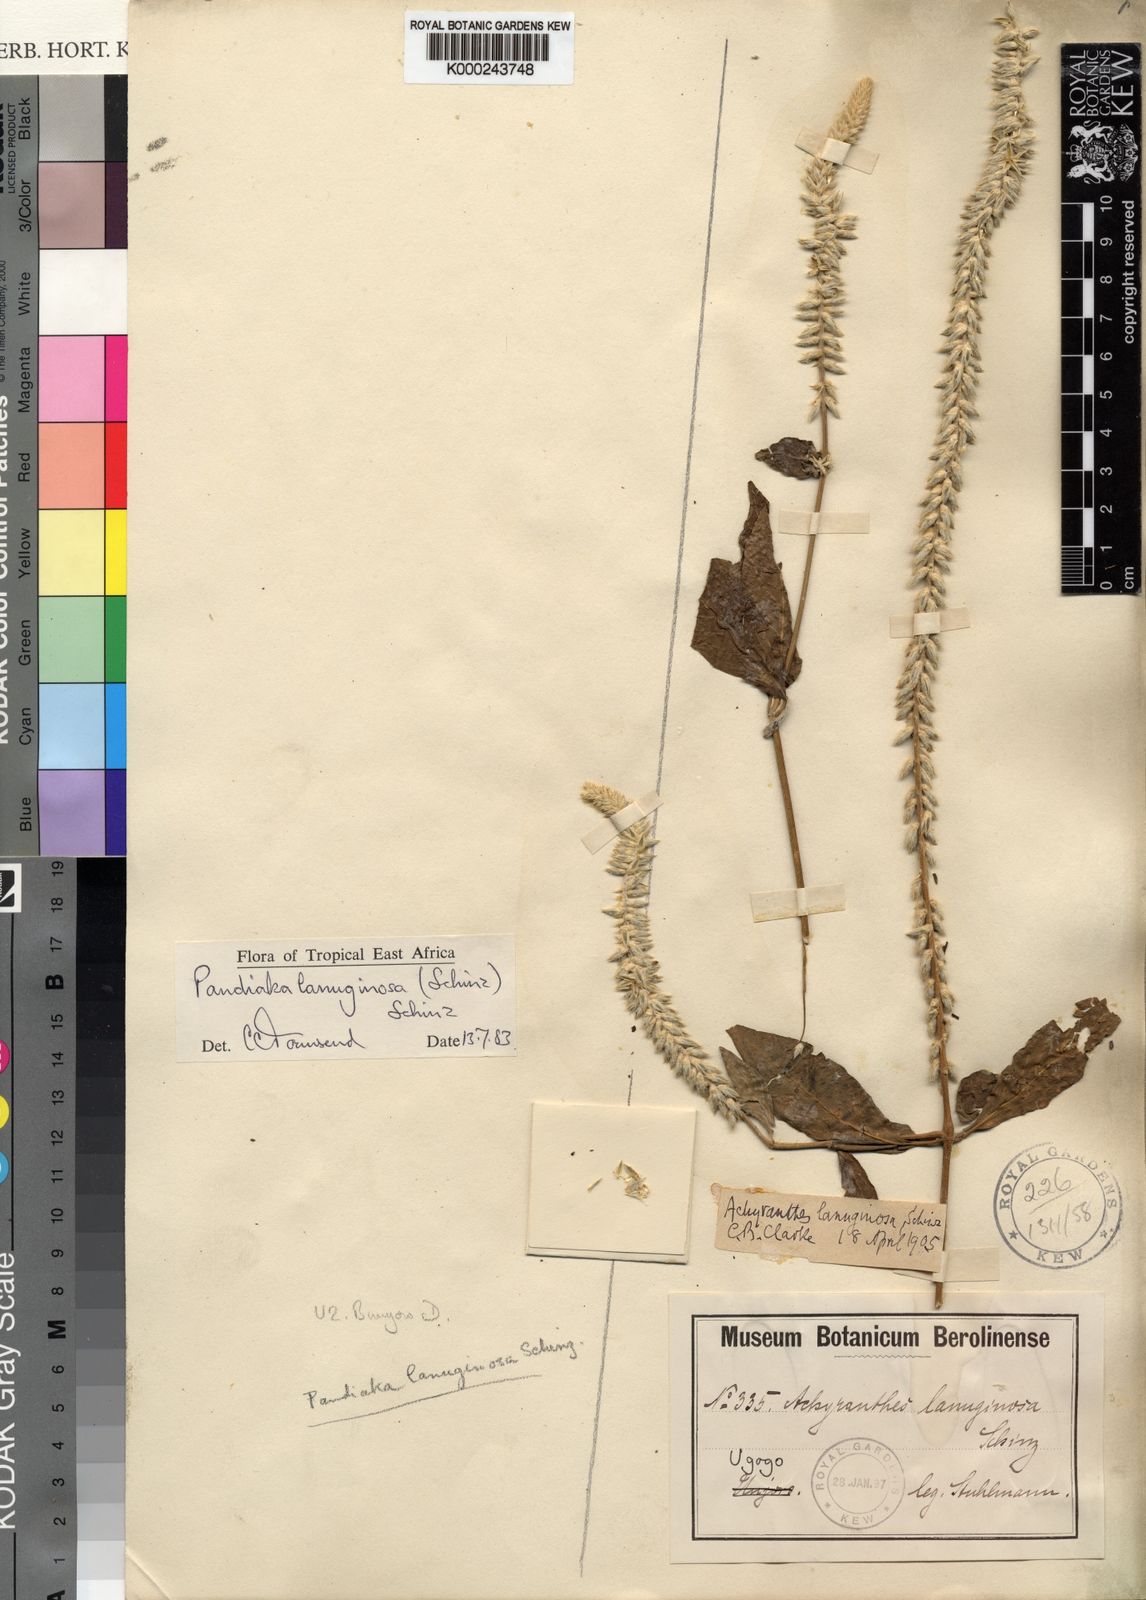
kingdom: Plantae
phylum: Tracheophyta
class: Magnoliopsida
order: Caryophyllales
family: Amaranthaceae
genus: Pandiaka
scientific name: Pandiaka
